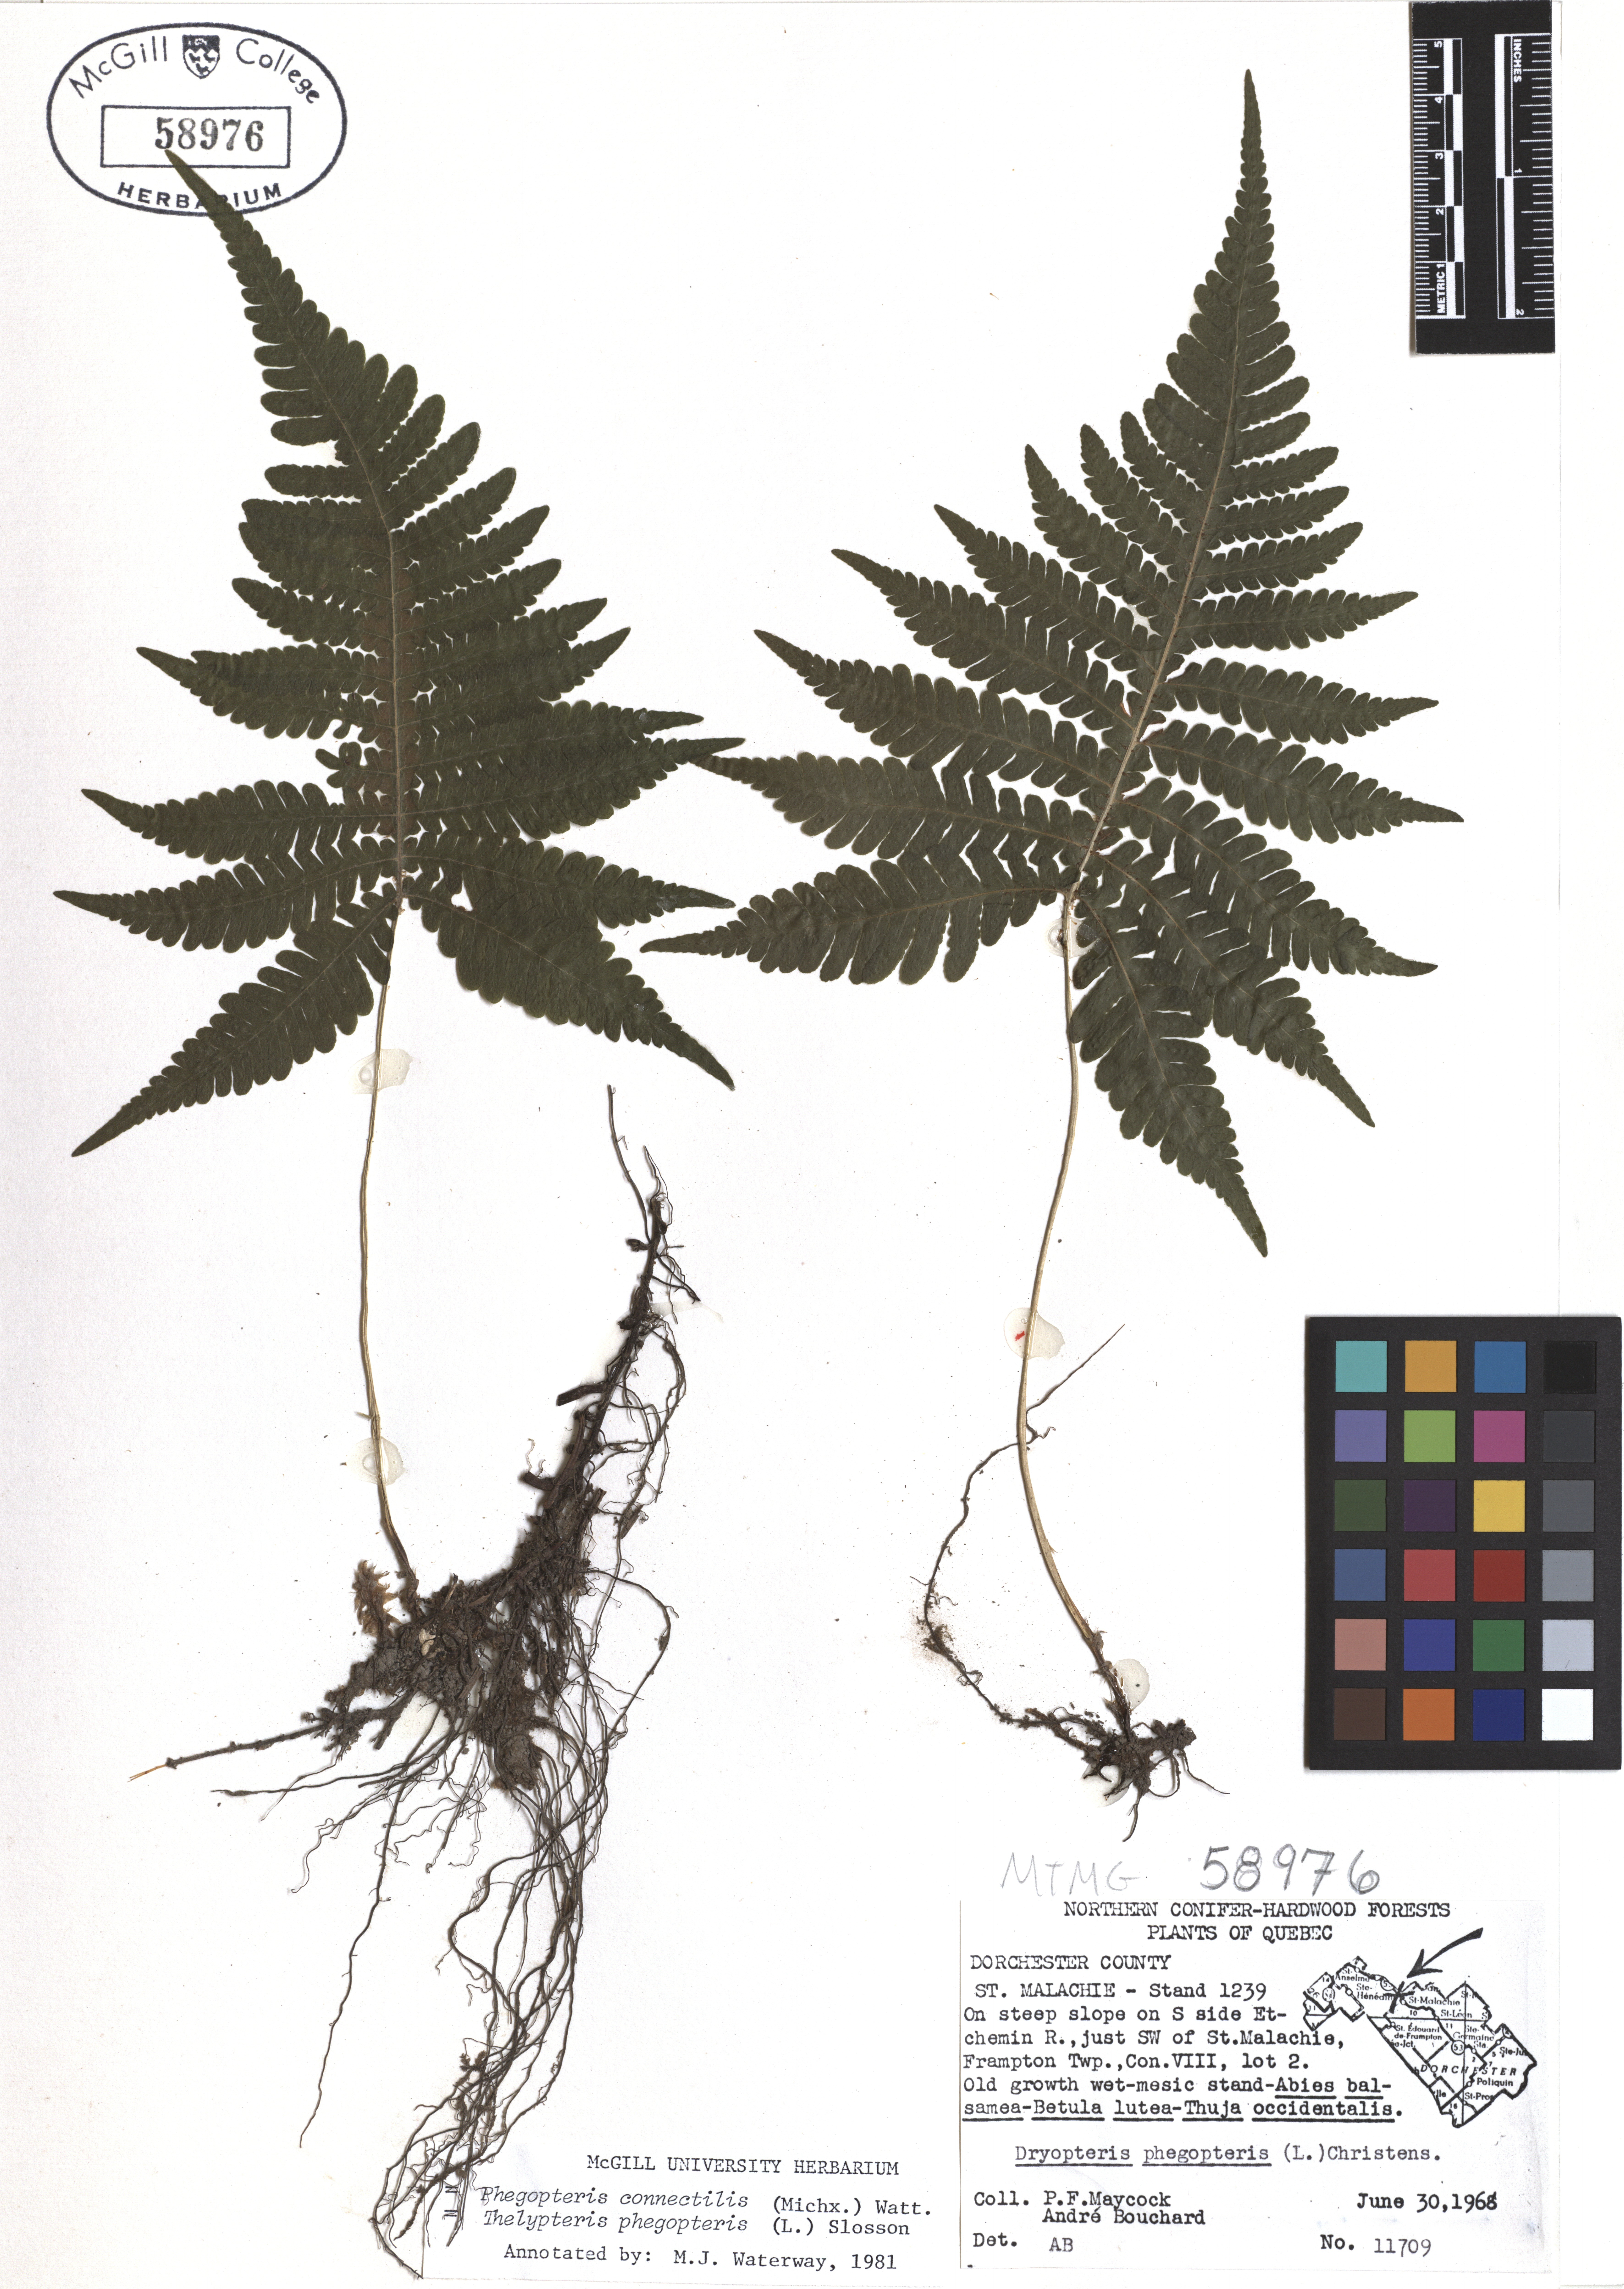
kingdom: Plantae
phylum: Tracheophyta
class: Polypodiopsida
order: Polypodiales
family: Thelypteridaceae
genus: Phegopteris
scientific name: Phegopteris connectilis
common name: Beech fern
